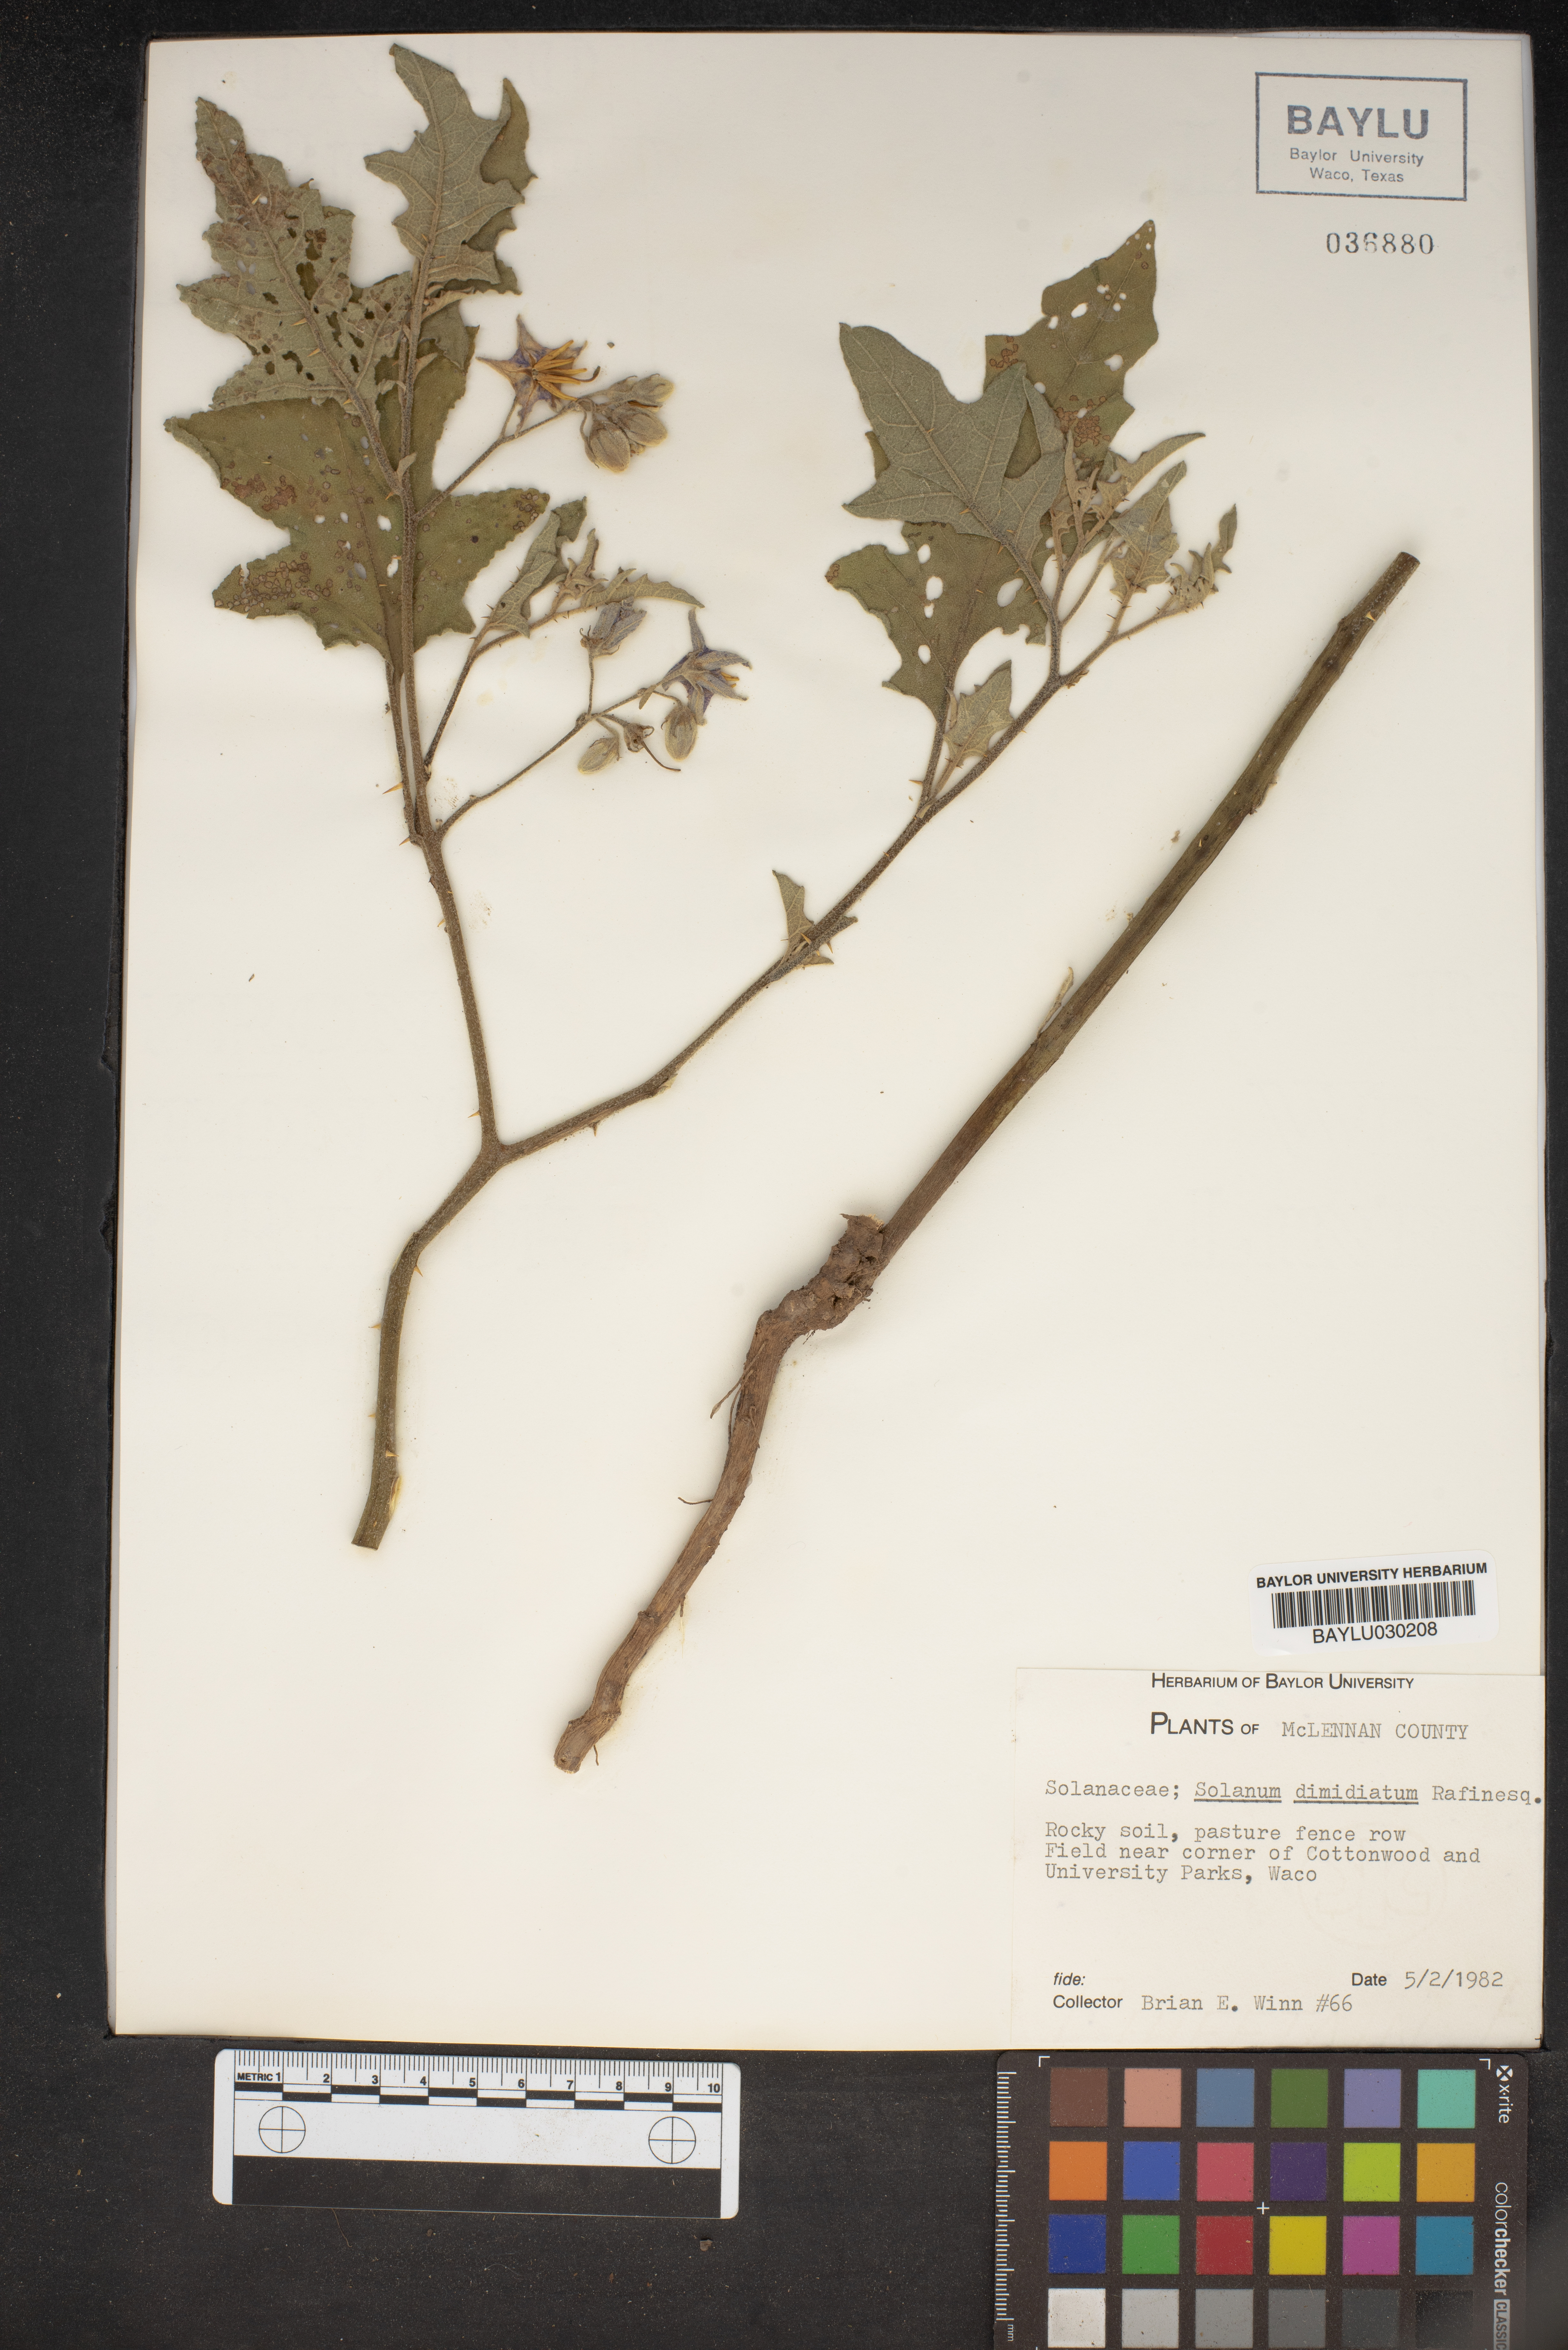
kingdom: Plantae
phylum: Tracheophyta
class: Magnoliopsida
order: Solanales
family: Solanaceae
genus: Solanum
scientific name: Solanum dimidiatum
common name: Carolina horse-nettle
